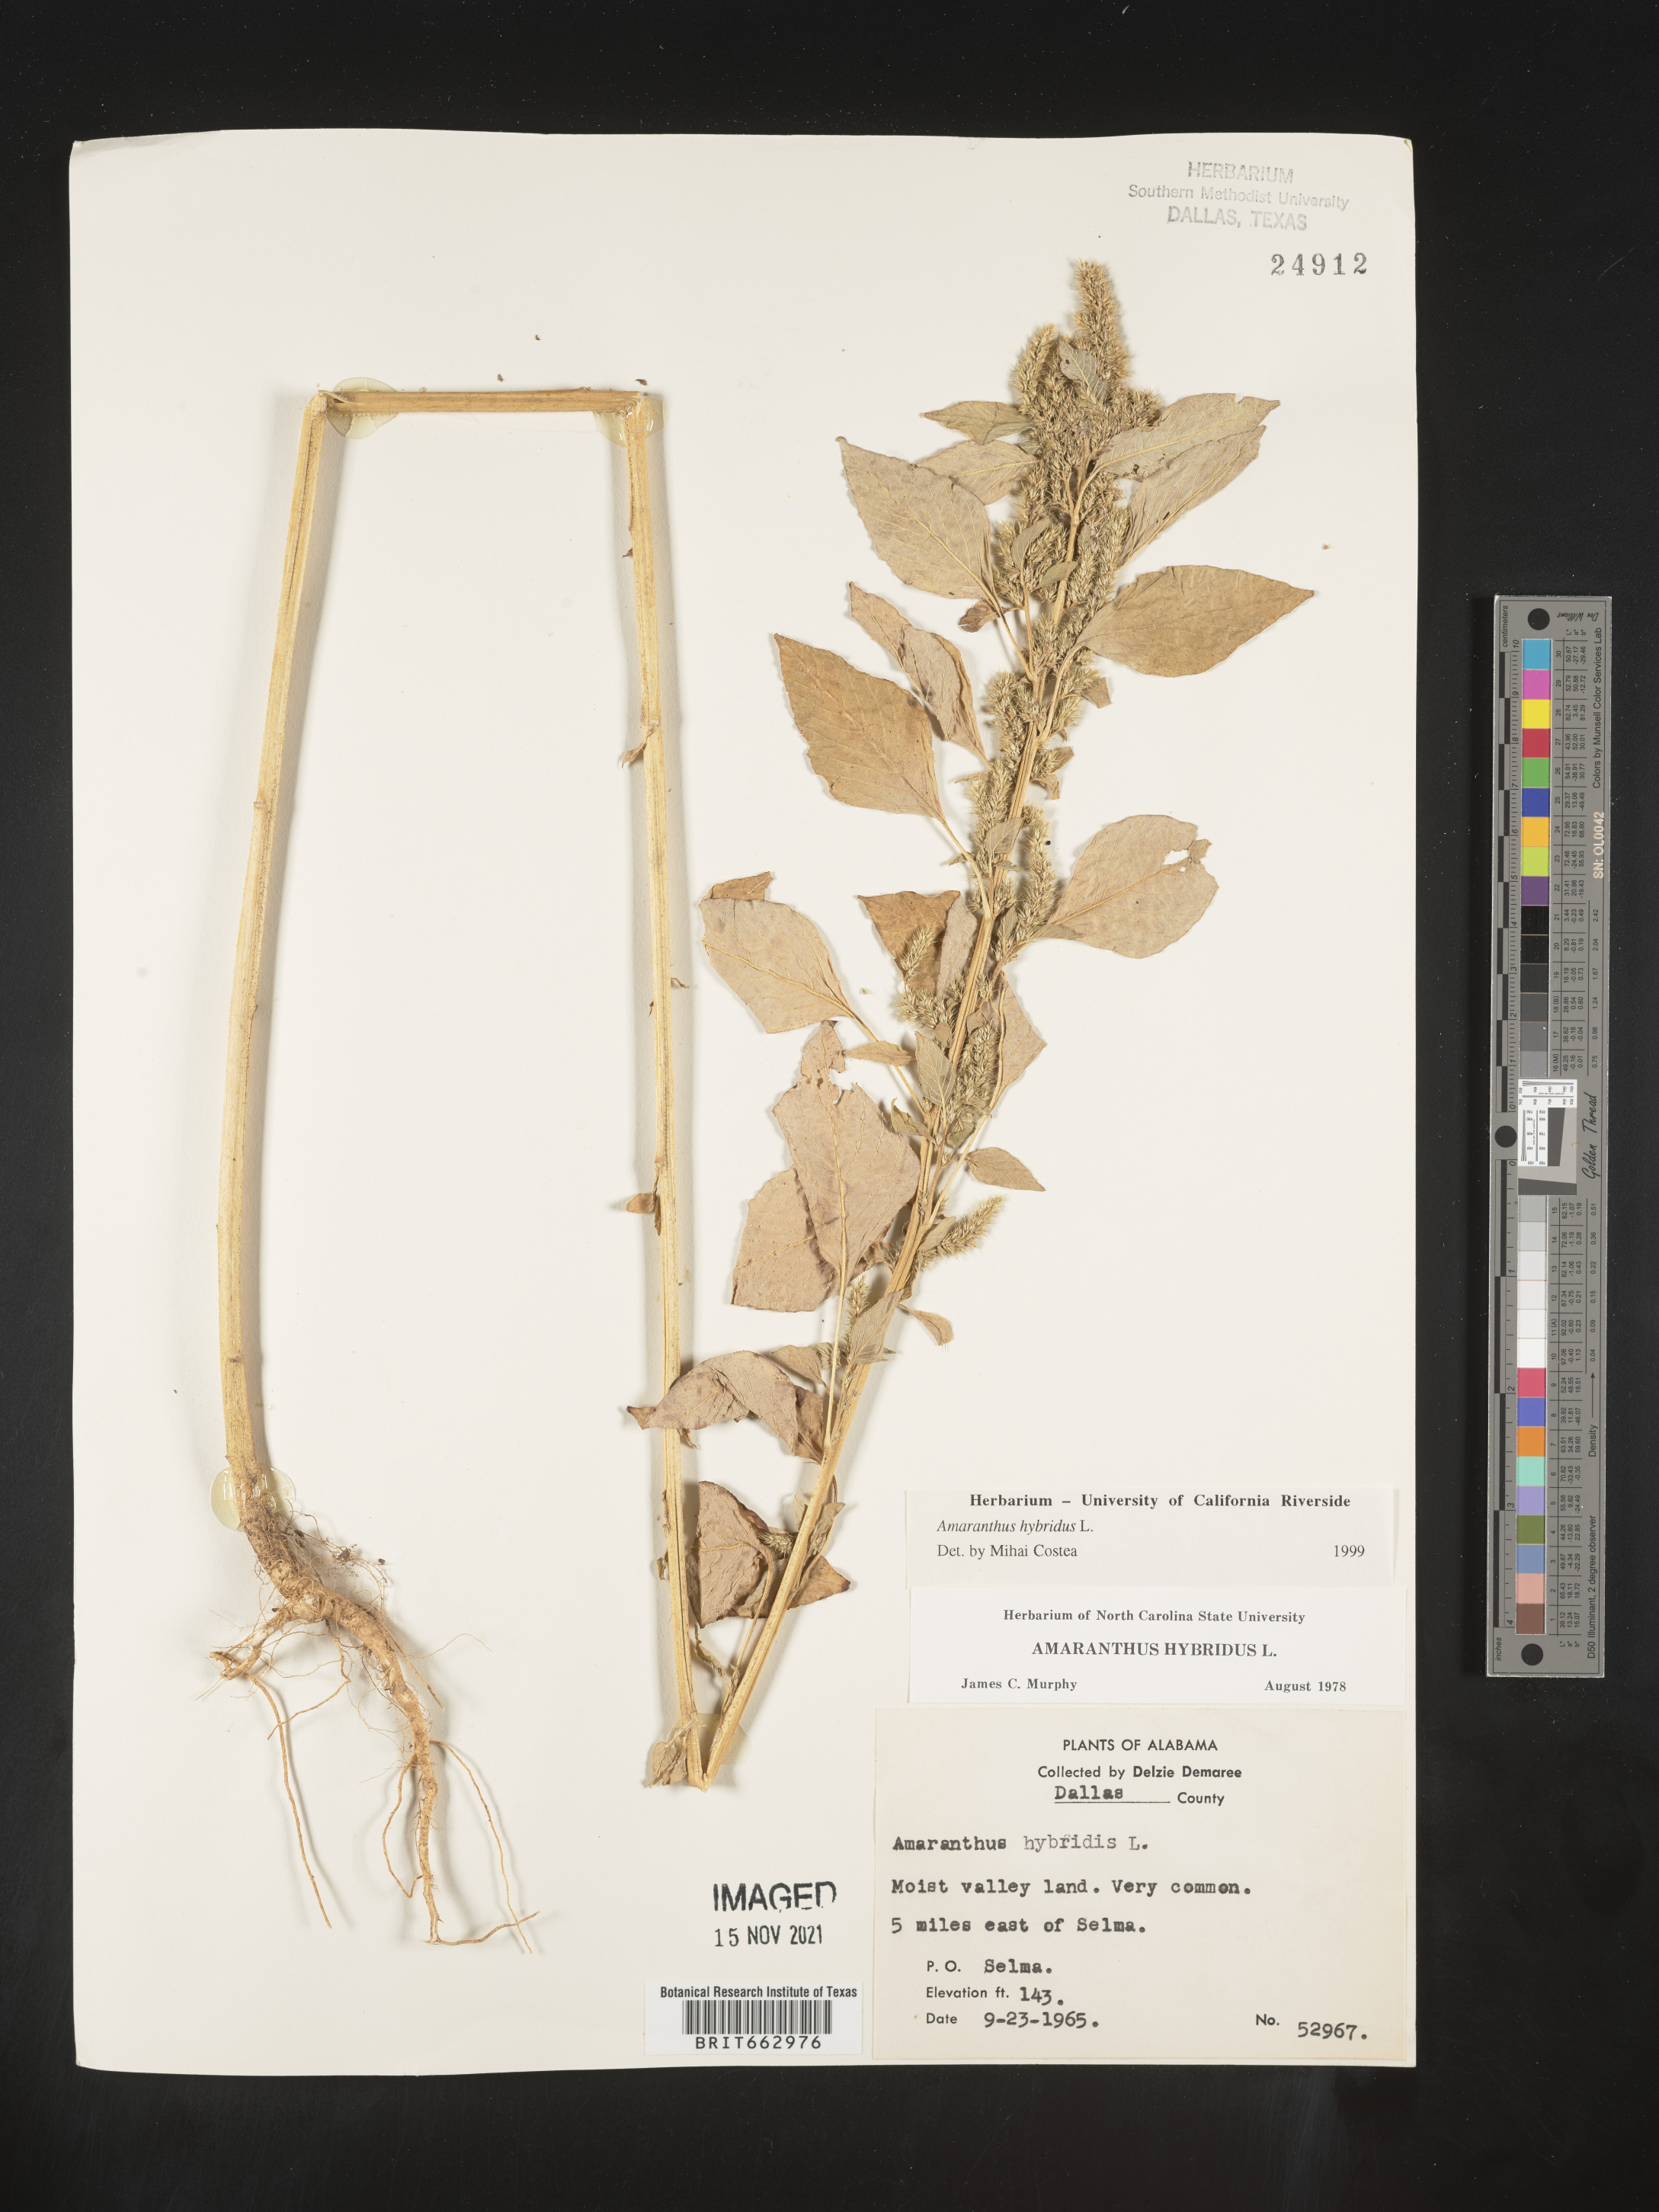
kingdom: Plantae
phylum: Tracheophyta
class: Magnoliopsida
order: Caryophyllales
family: Amaranthaceae
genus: Amaranthus
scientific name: Amaranthus hybridus
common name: Green amaranth
